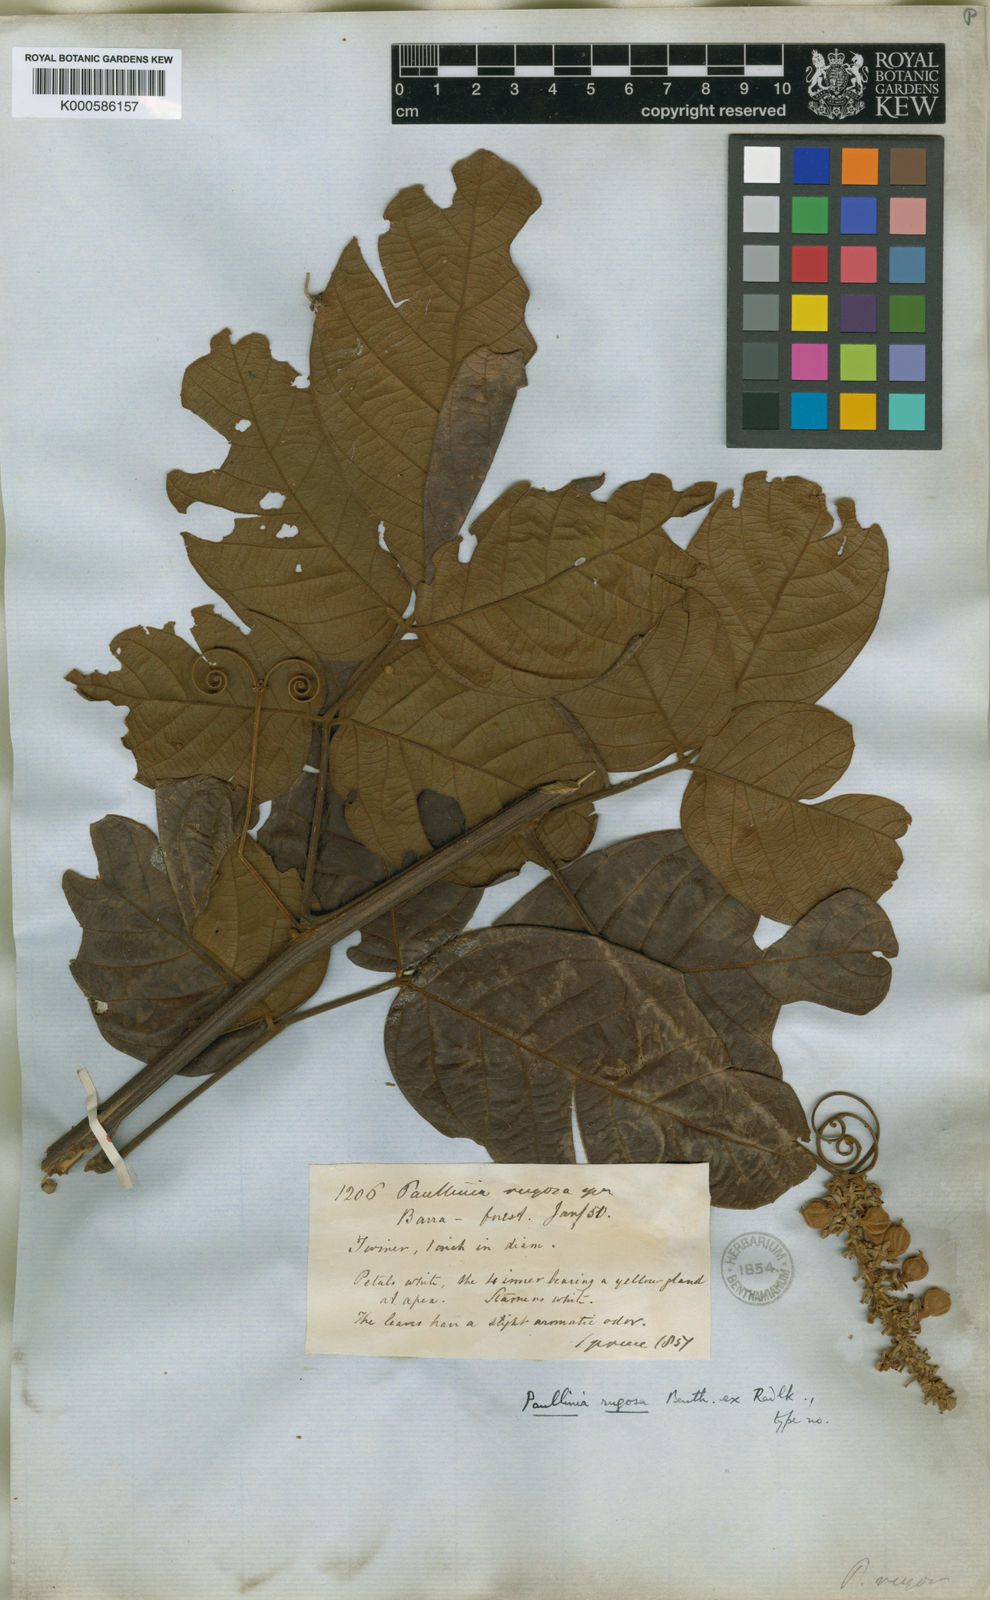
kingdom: Plantae
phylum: Tracheophyta
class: Magnoliopsida
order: Sapindales
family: Sapindaceae
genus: Paullinia
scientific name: Paullinia rugosa
